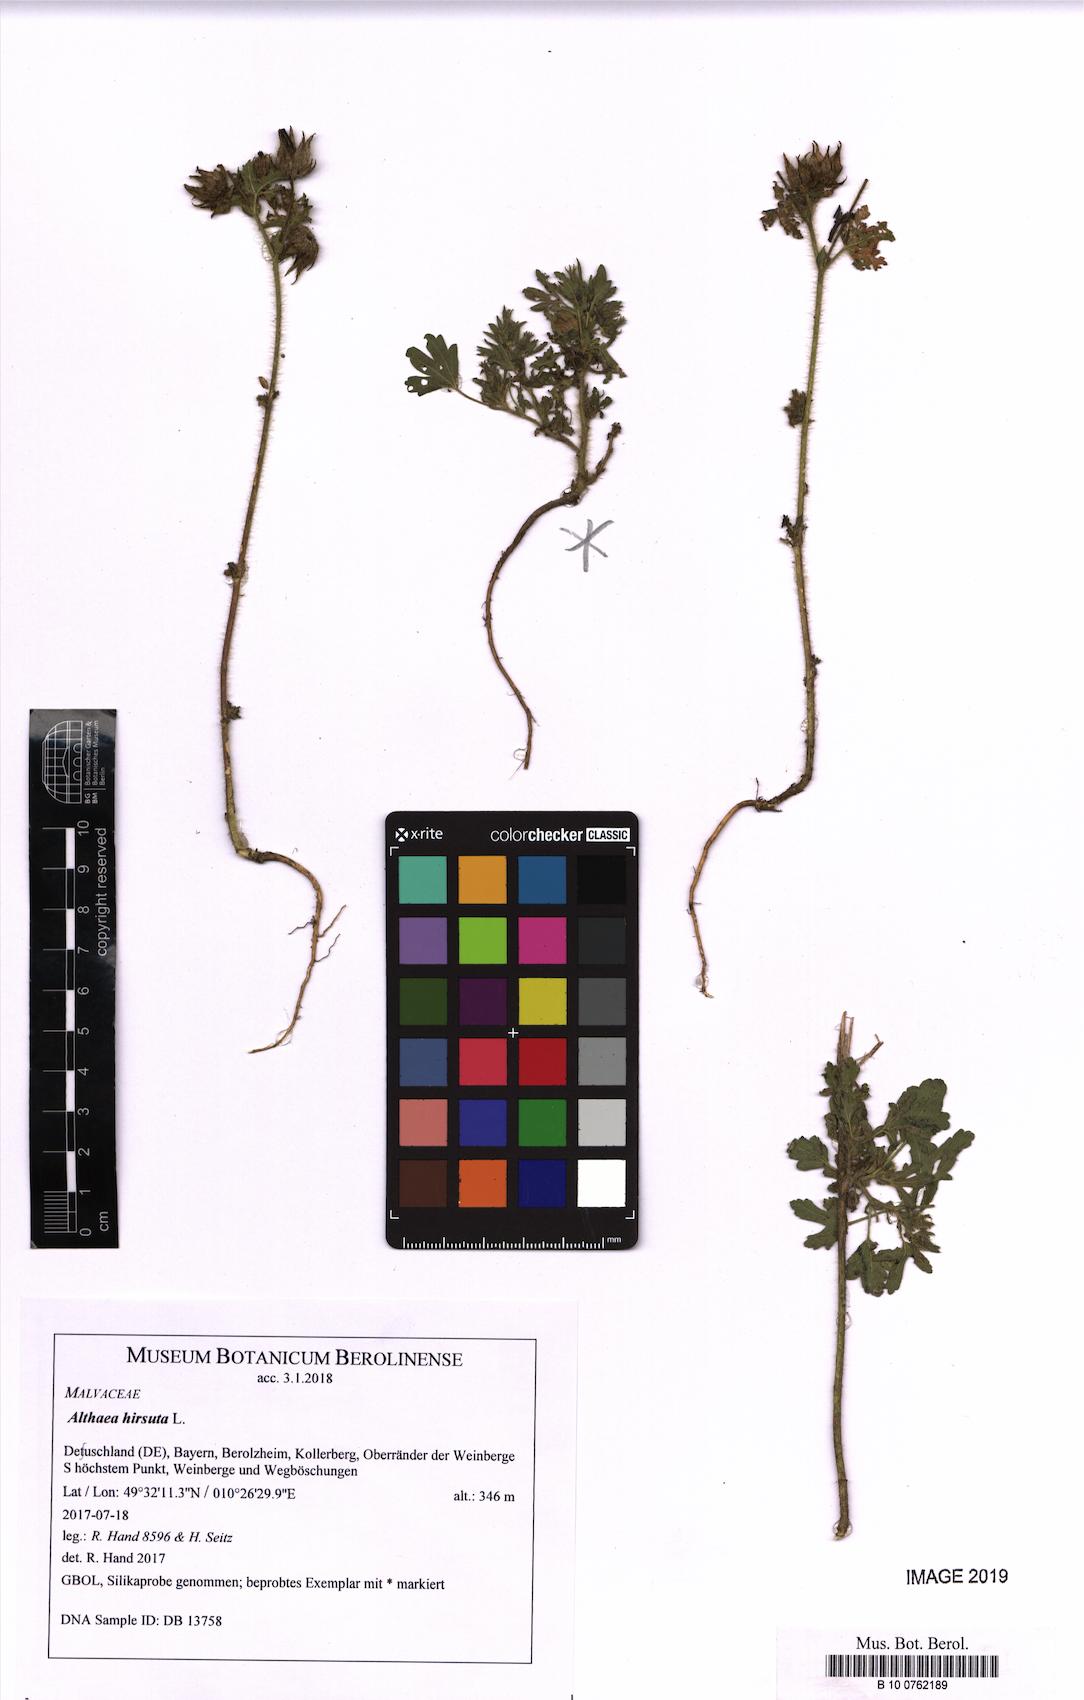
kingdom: Plantae
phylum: Tracheophyta
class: Magnoliopsida
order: Malvales
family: Malvaceae
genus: Althaea
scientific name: Althaea hirsuta
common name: Rough marsh-mallow
